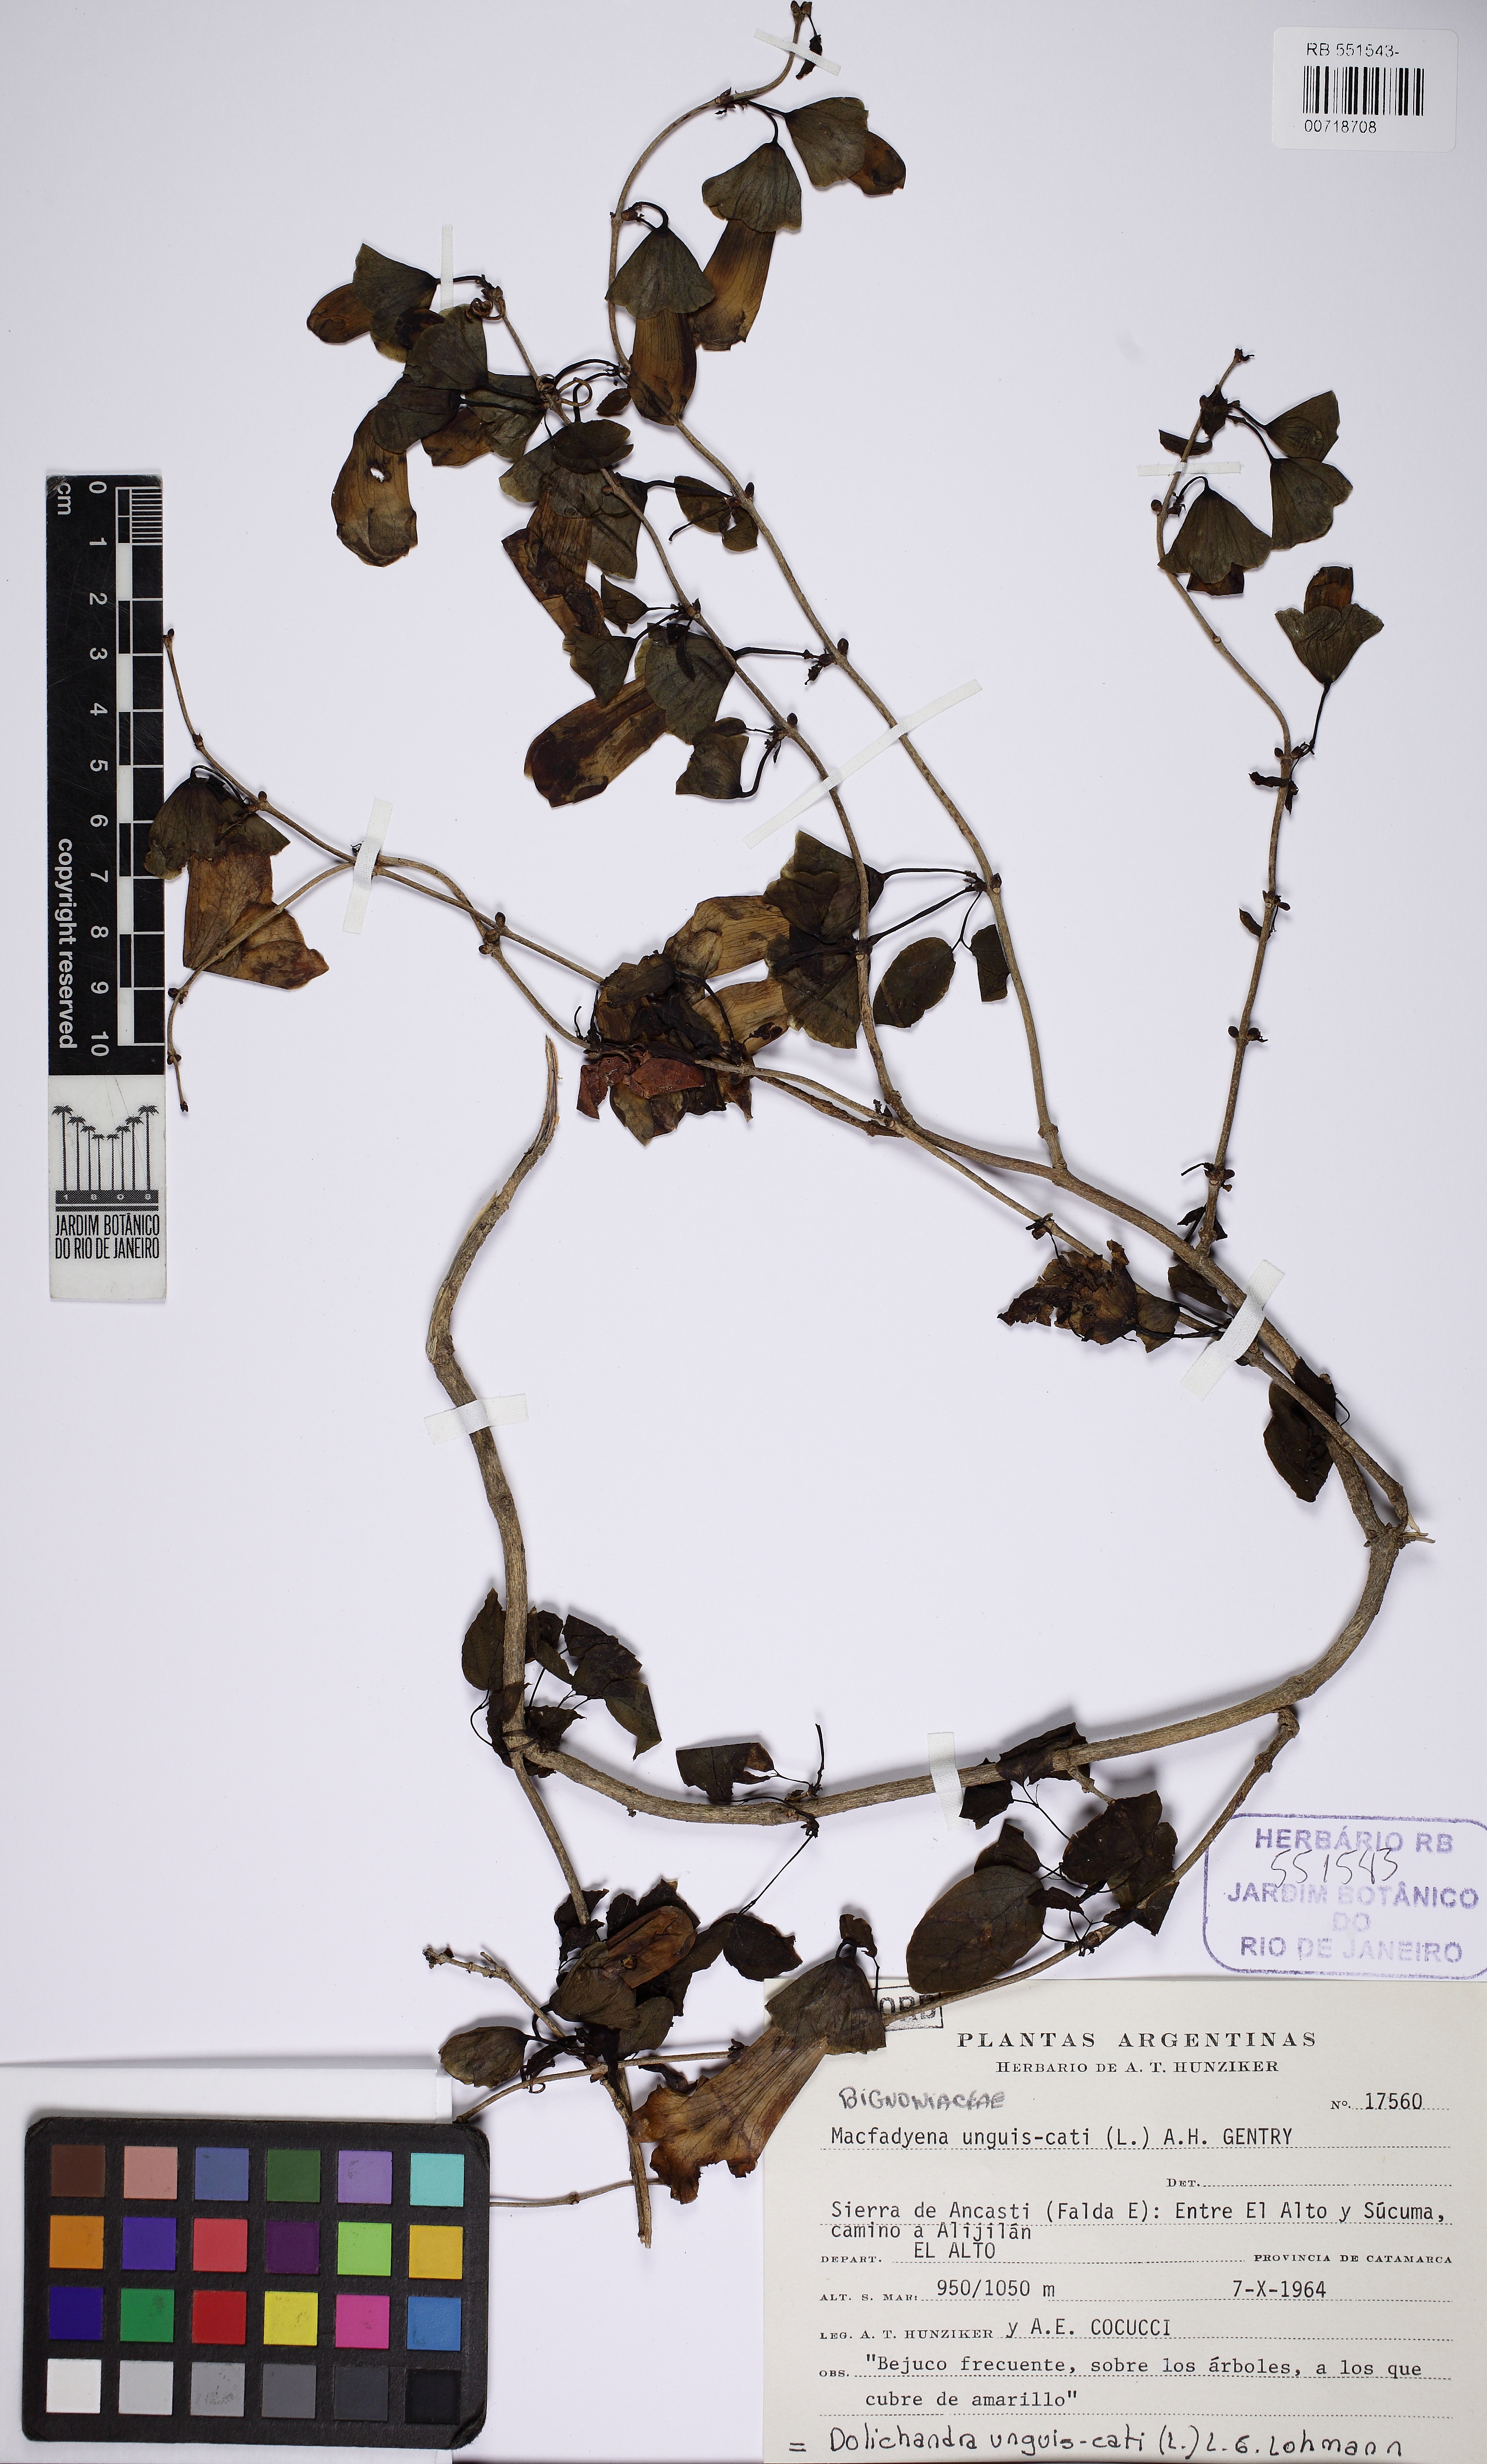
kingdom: Plantae
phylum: Tracheophyta
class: Magnoliopsida
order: Lamiales
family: Bignoniaceae
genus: Dolichandra
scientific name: Dolichandra unguis-cati
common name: Catclaw vine
